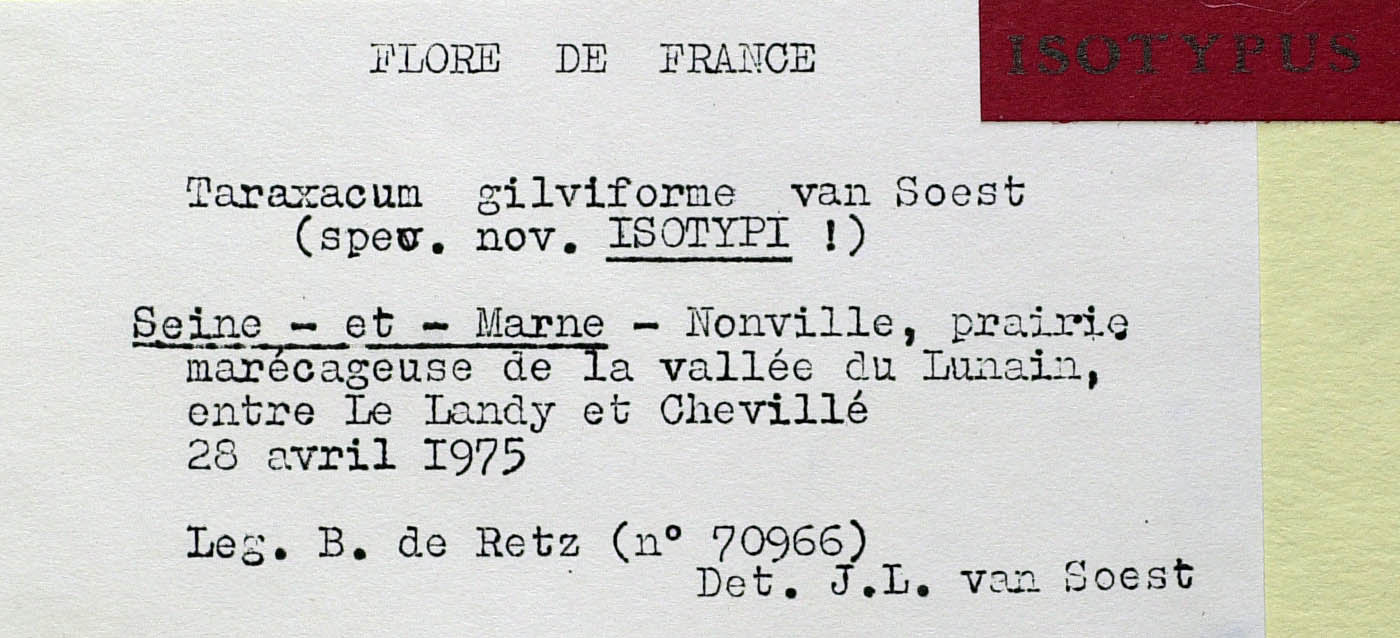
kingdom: Plantae
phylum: Tracheophyta
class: Magnoliopsida
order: Asterales
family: Asteraceae
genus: Taraxacum
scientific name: Taraxacum
